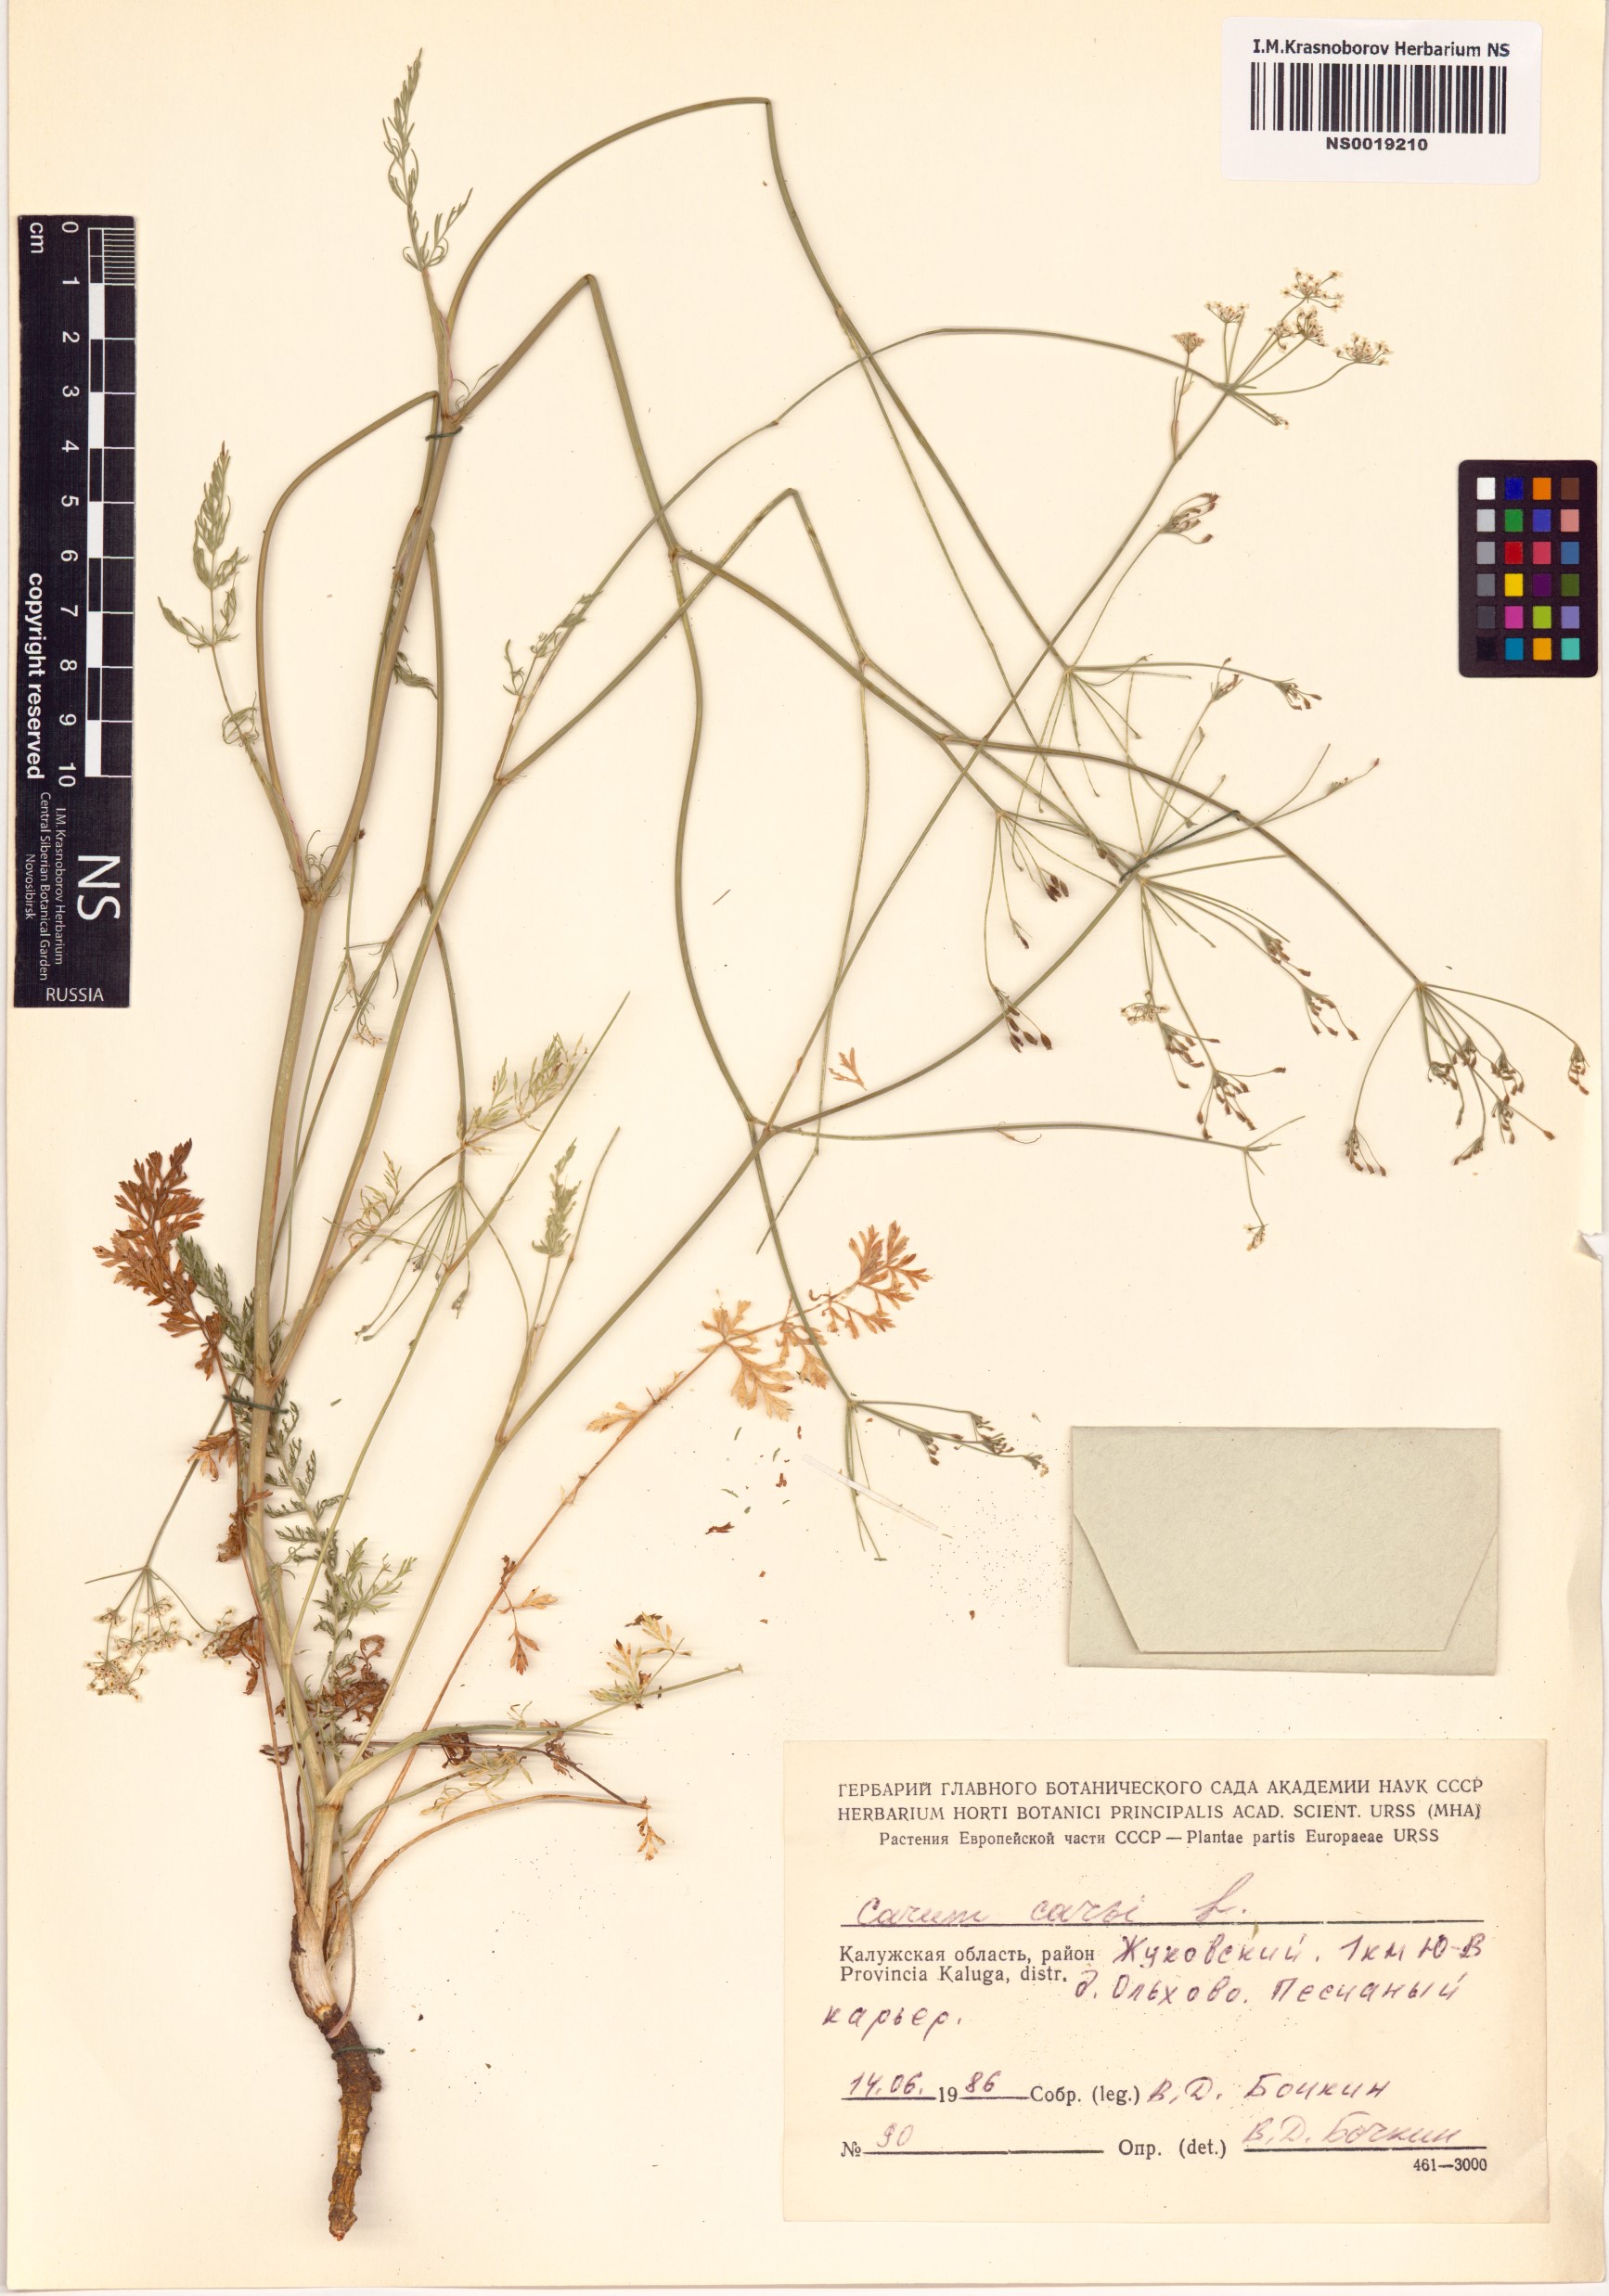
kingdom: Plantae
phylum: Tracheophyta
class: Magnoliopsida
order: Apiales
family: Apiaceae
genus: Carum
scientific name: Carum carvi
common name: Caraway
